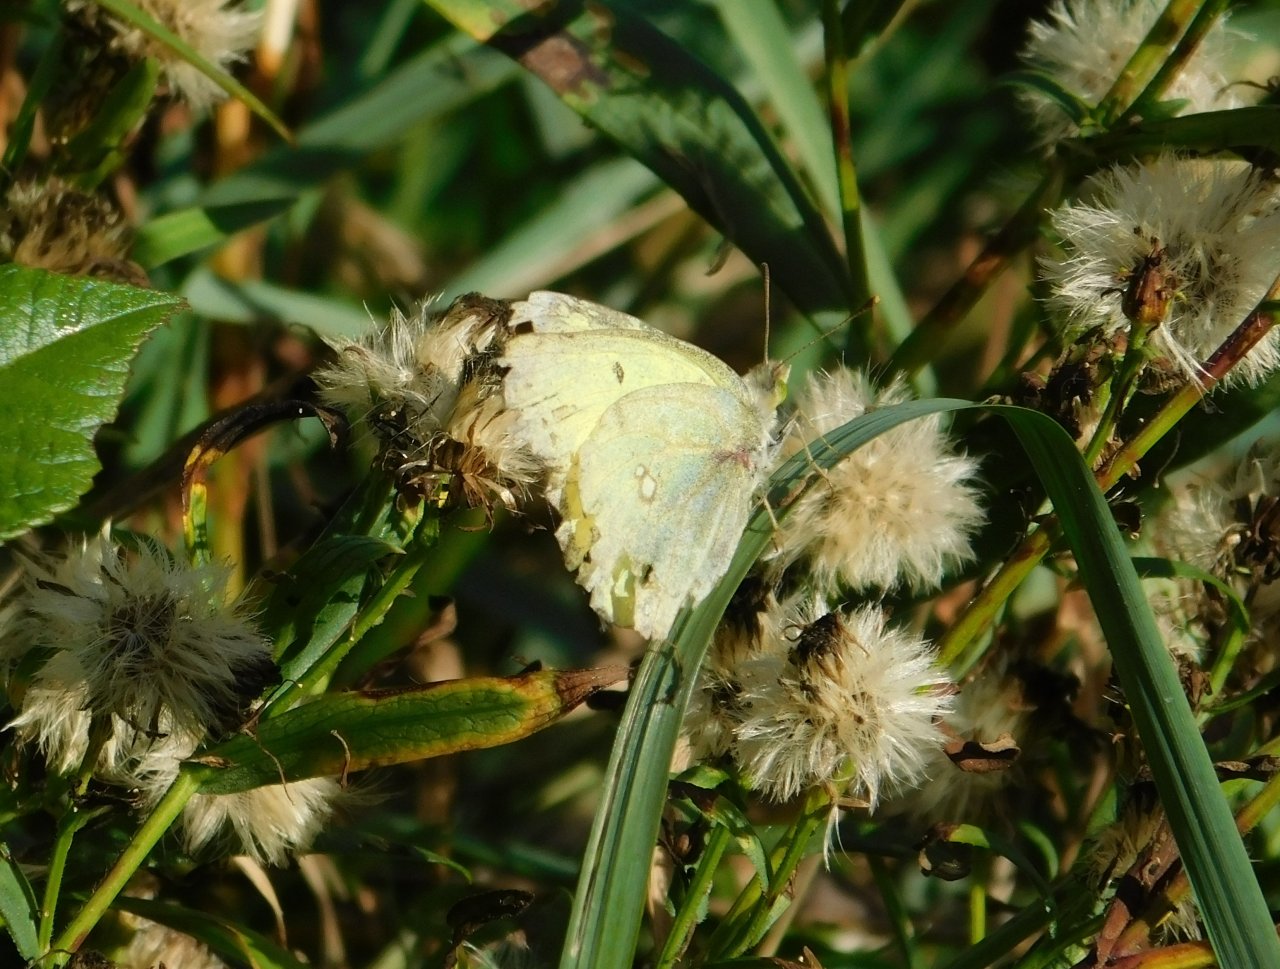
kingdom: Animalia
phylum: Arthropoda
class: Insecta
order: Lepidoptera
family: Pieridae
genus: Colias
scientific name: Colias philodice
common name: Clouded Sulphur
